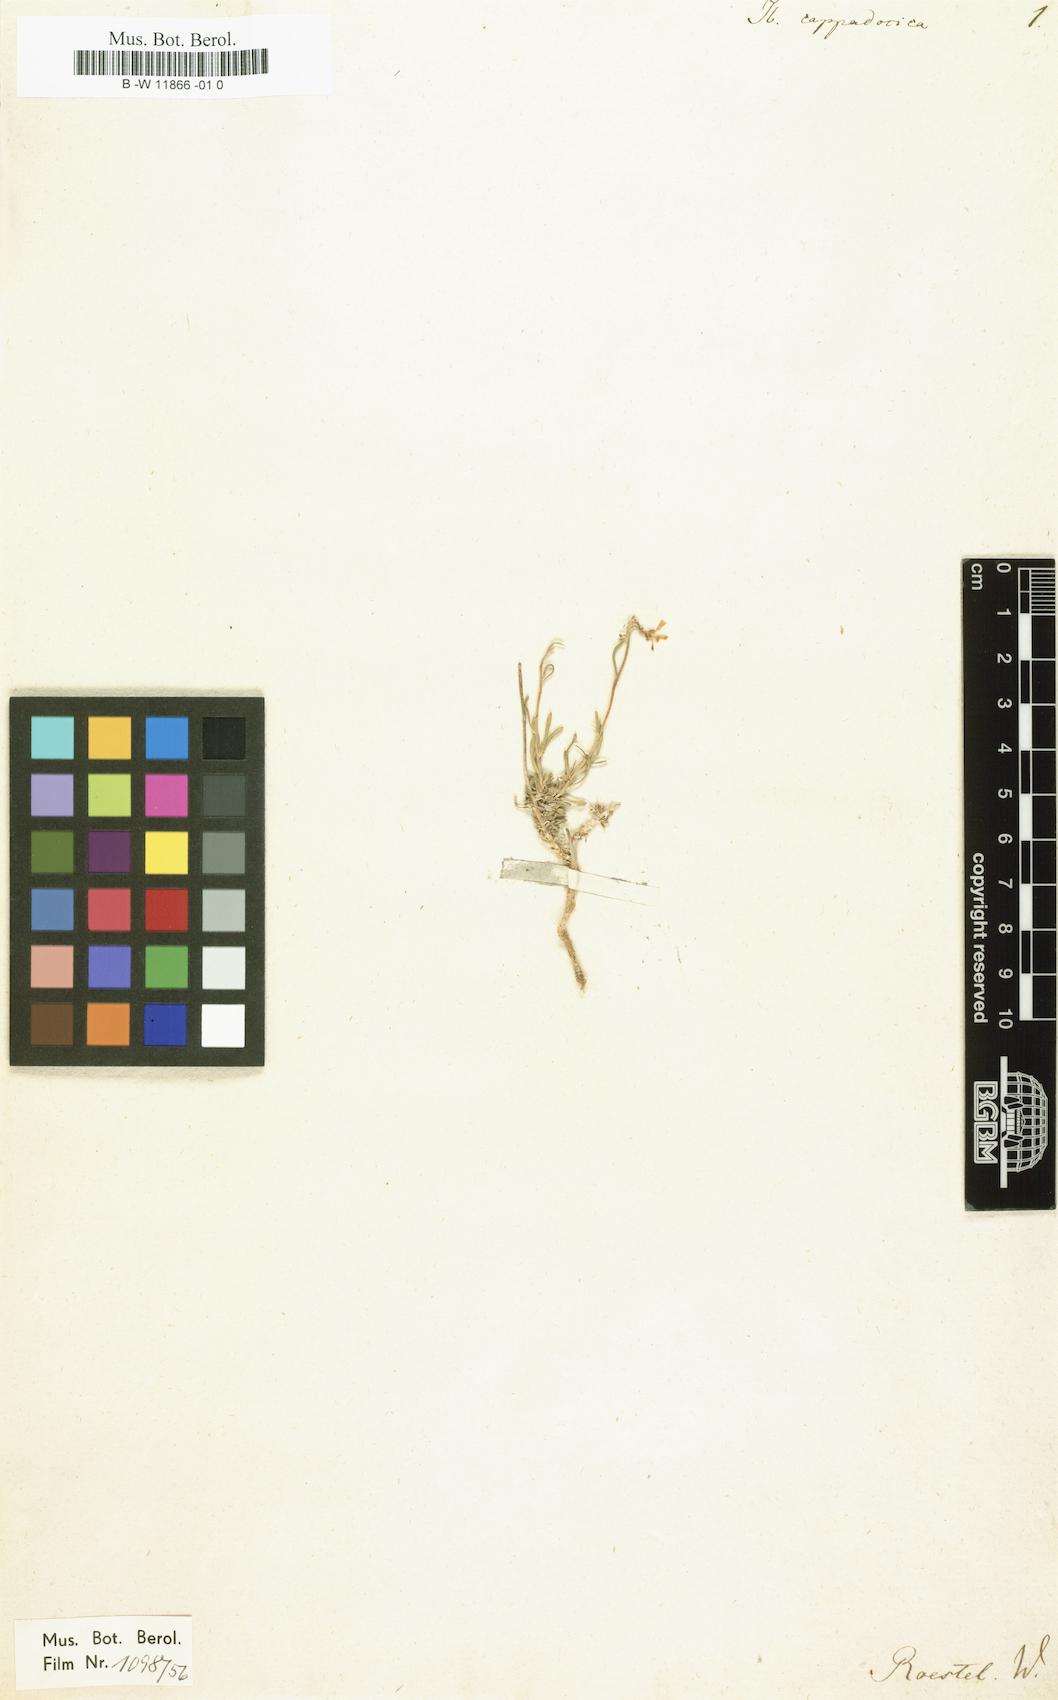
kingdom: Plantae
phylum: Tracheophyta
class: Magnoliopsida
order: Brassicales
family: Brassicaceae
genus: Bornmuellera
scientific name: Bornmuellera cappadocica
